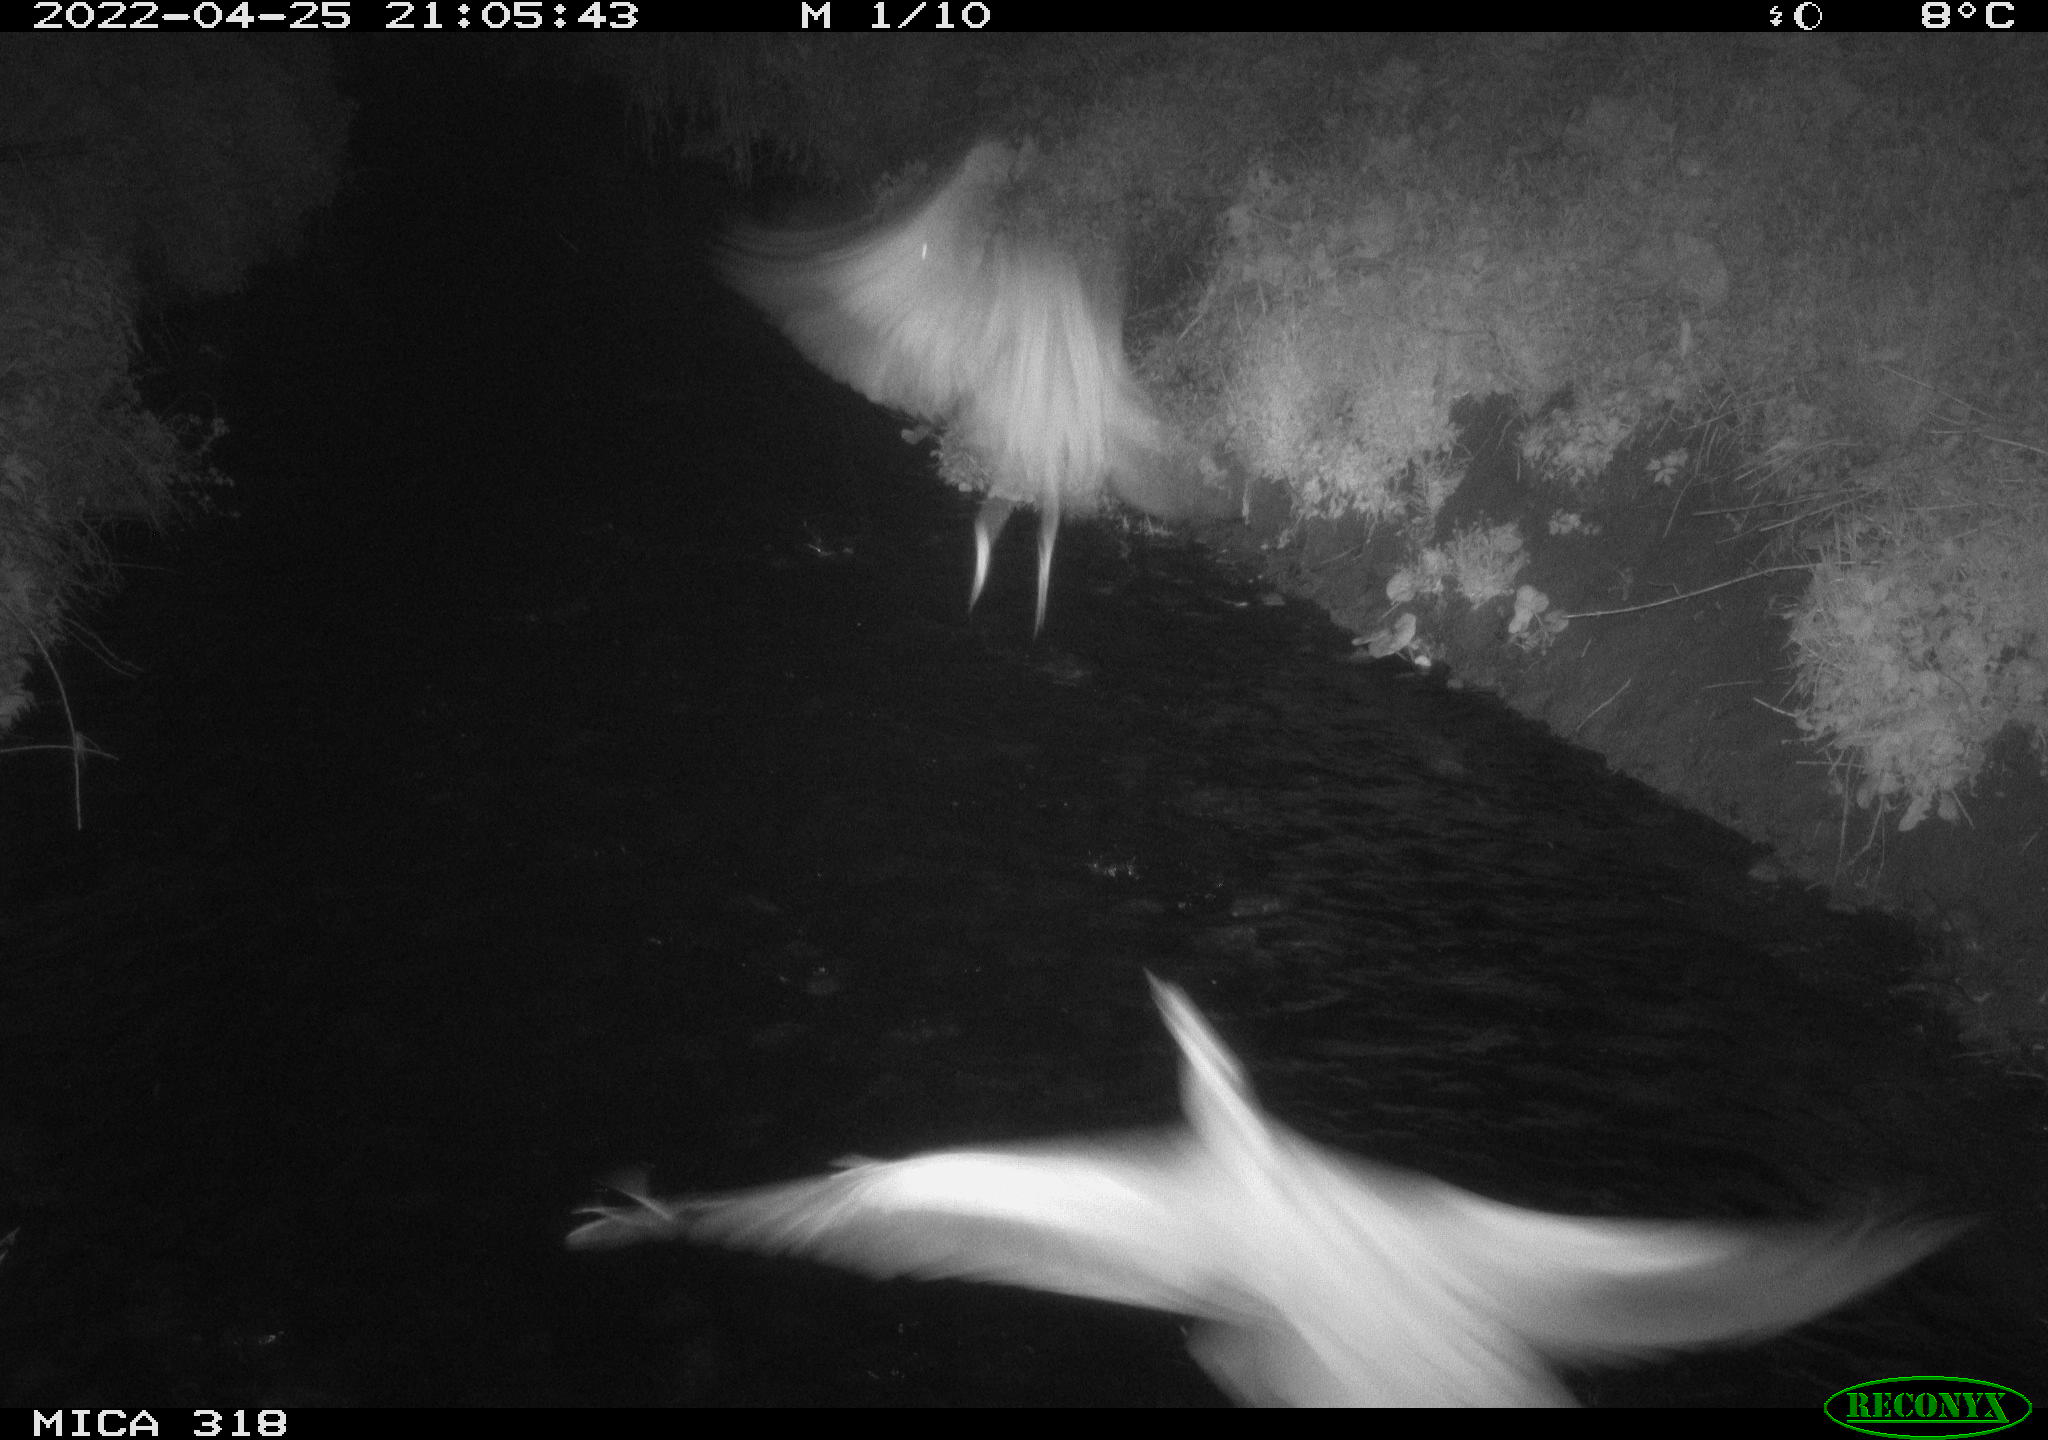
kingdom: Animalia
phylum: Chordata
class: Aves
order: Pelecaniformes
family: Ardeidae
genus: Ardea
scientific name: Ardea
